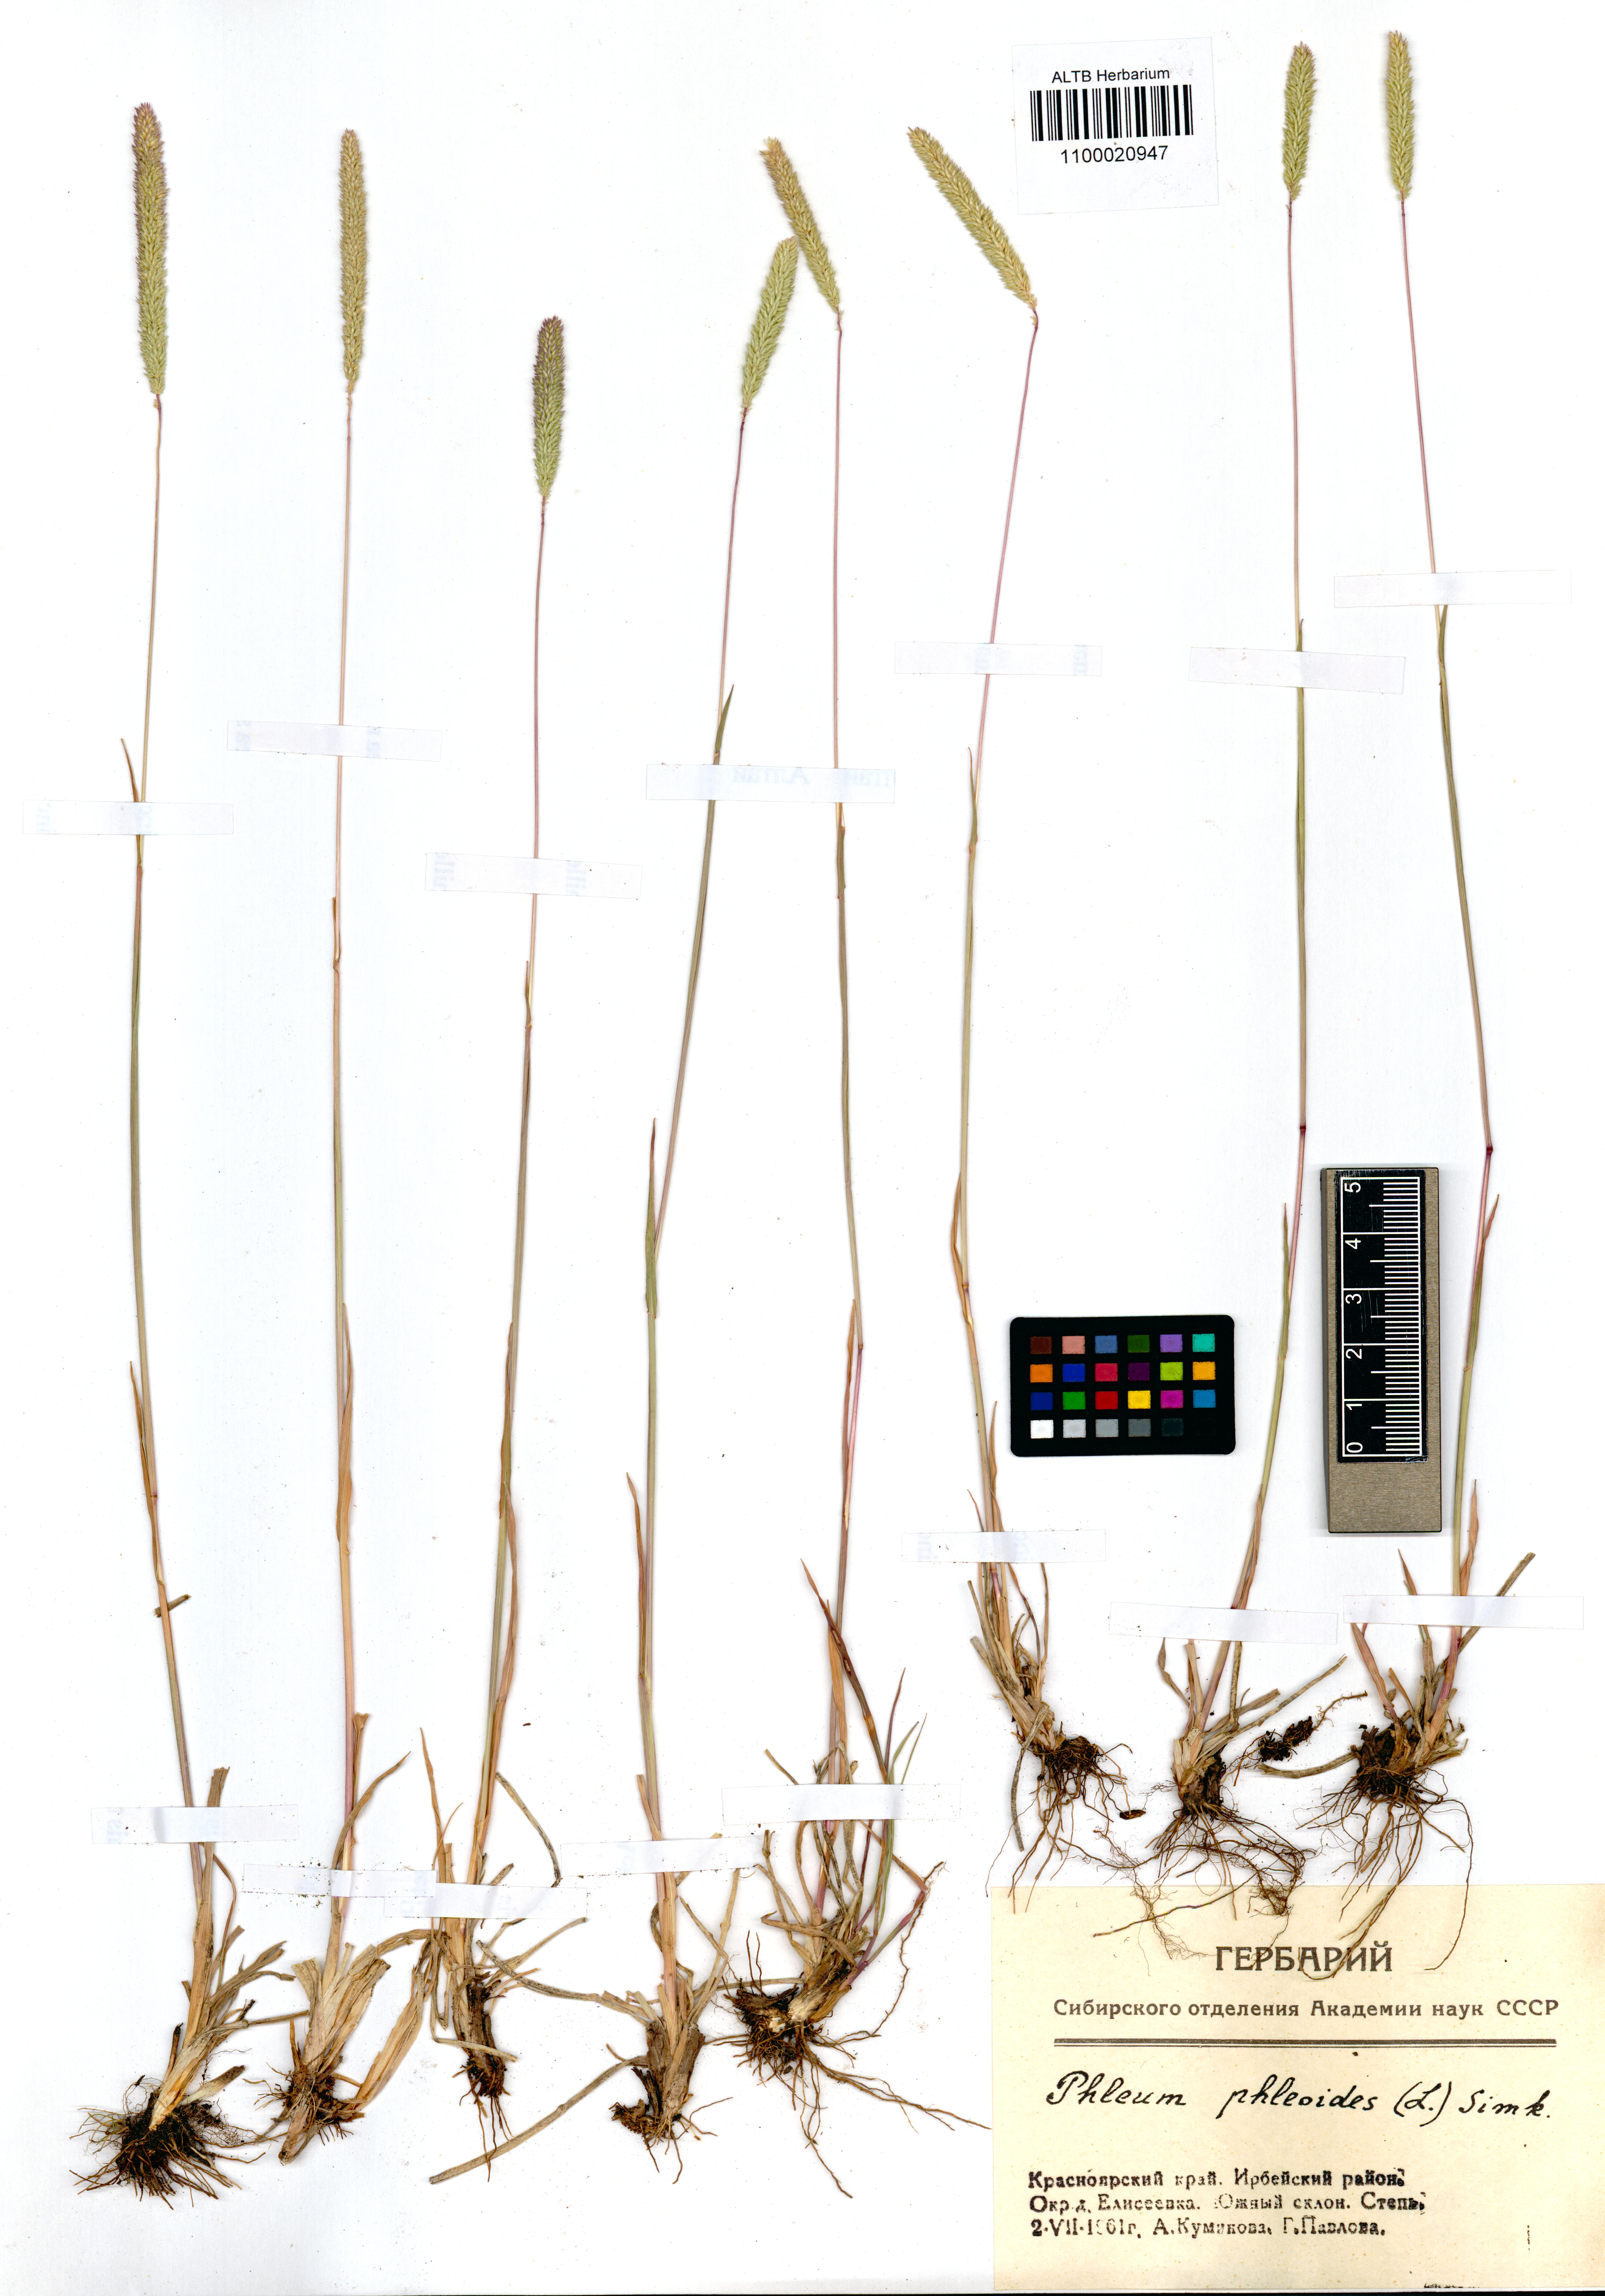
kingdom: Plantae
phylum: Tracheophyta
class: Liliopsida
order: Poales
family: Poaceae
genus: Phleum
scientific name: Phleum phleoides
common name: Purple-stem cat's-tail
